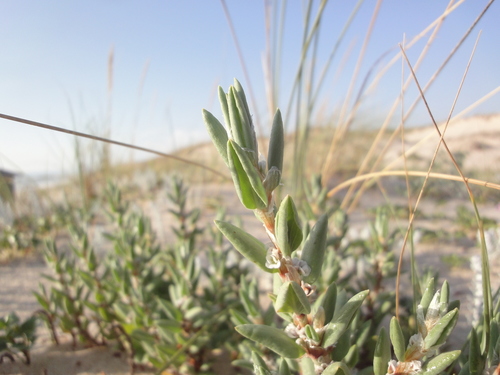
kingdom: Plantae
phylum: Tracheophyta
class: Magnoliopsida
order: Caryophyllales
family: Polygonaceae
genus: Polygonum
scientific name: Polygonum maritimum
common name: Sea knotgrass
